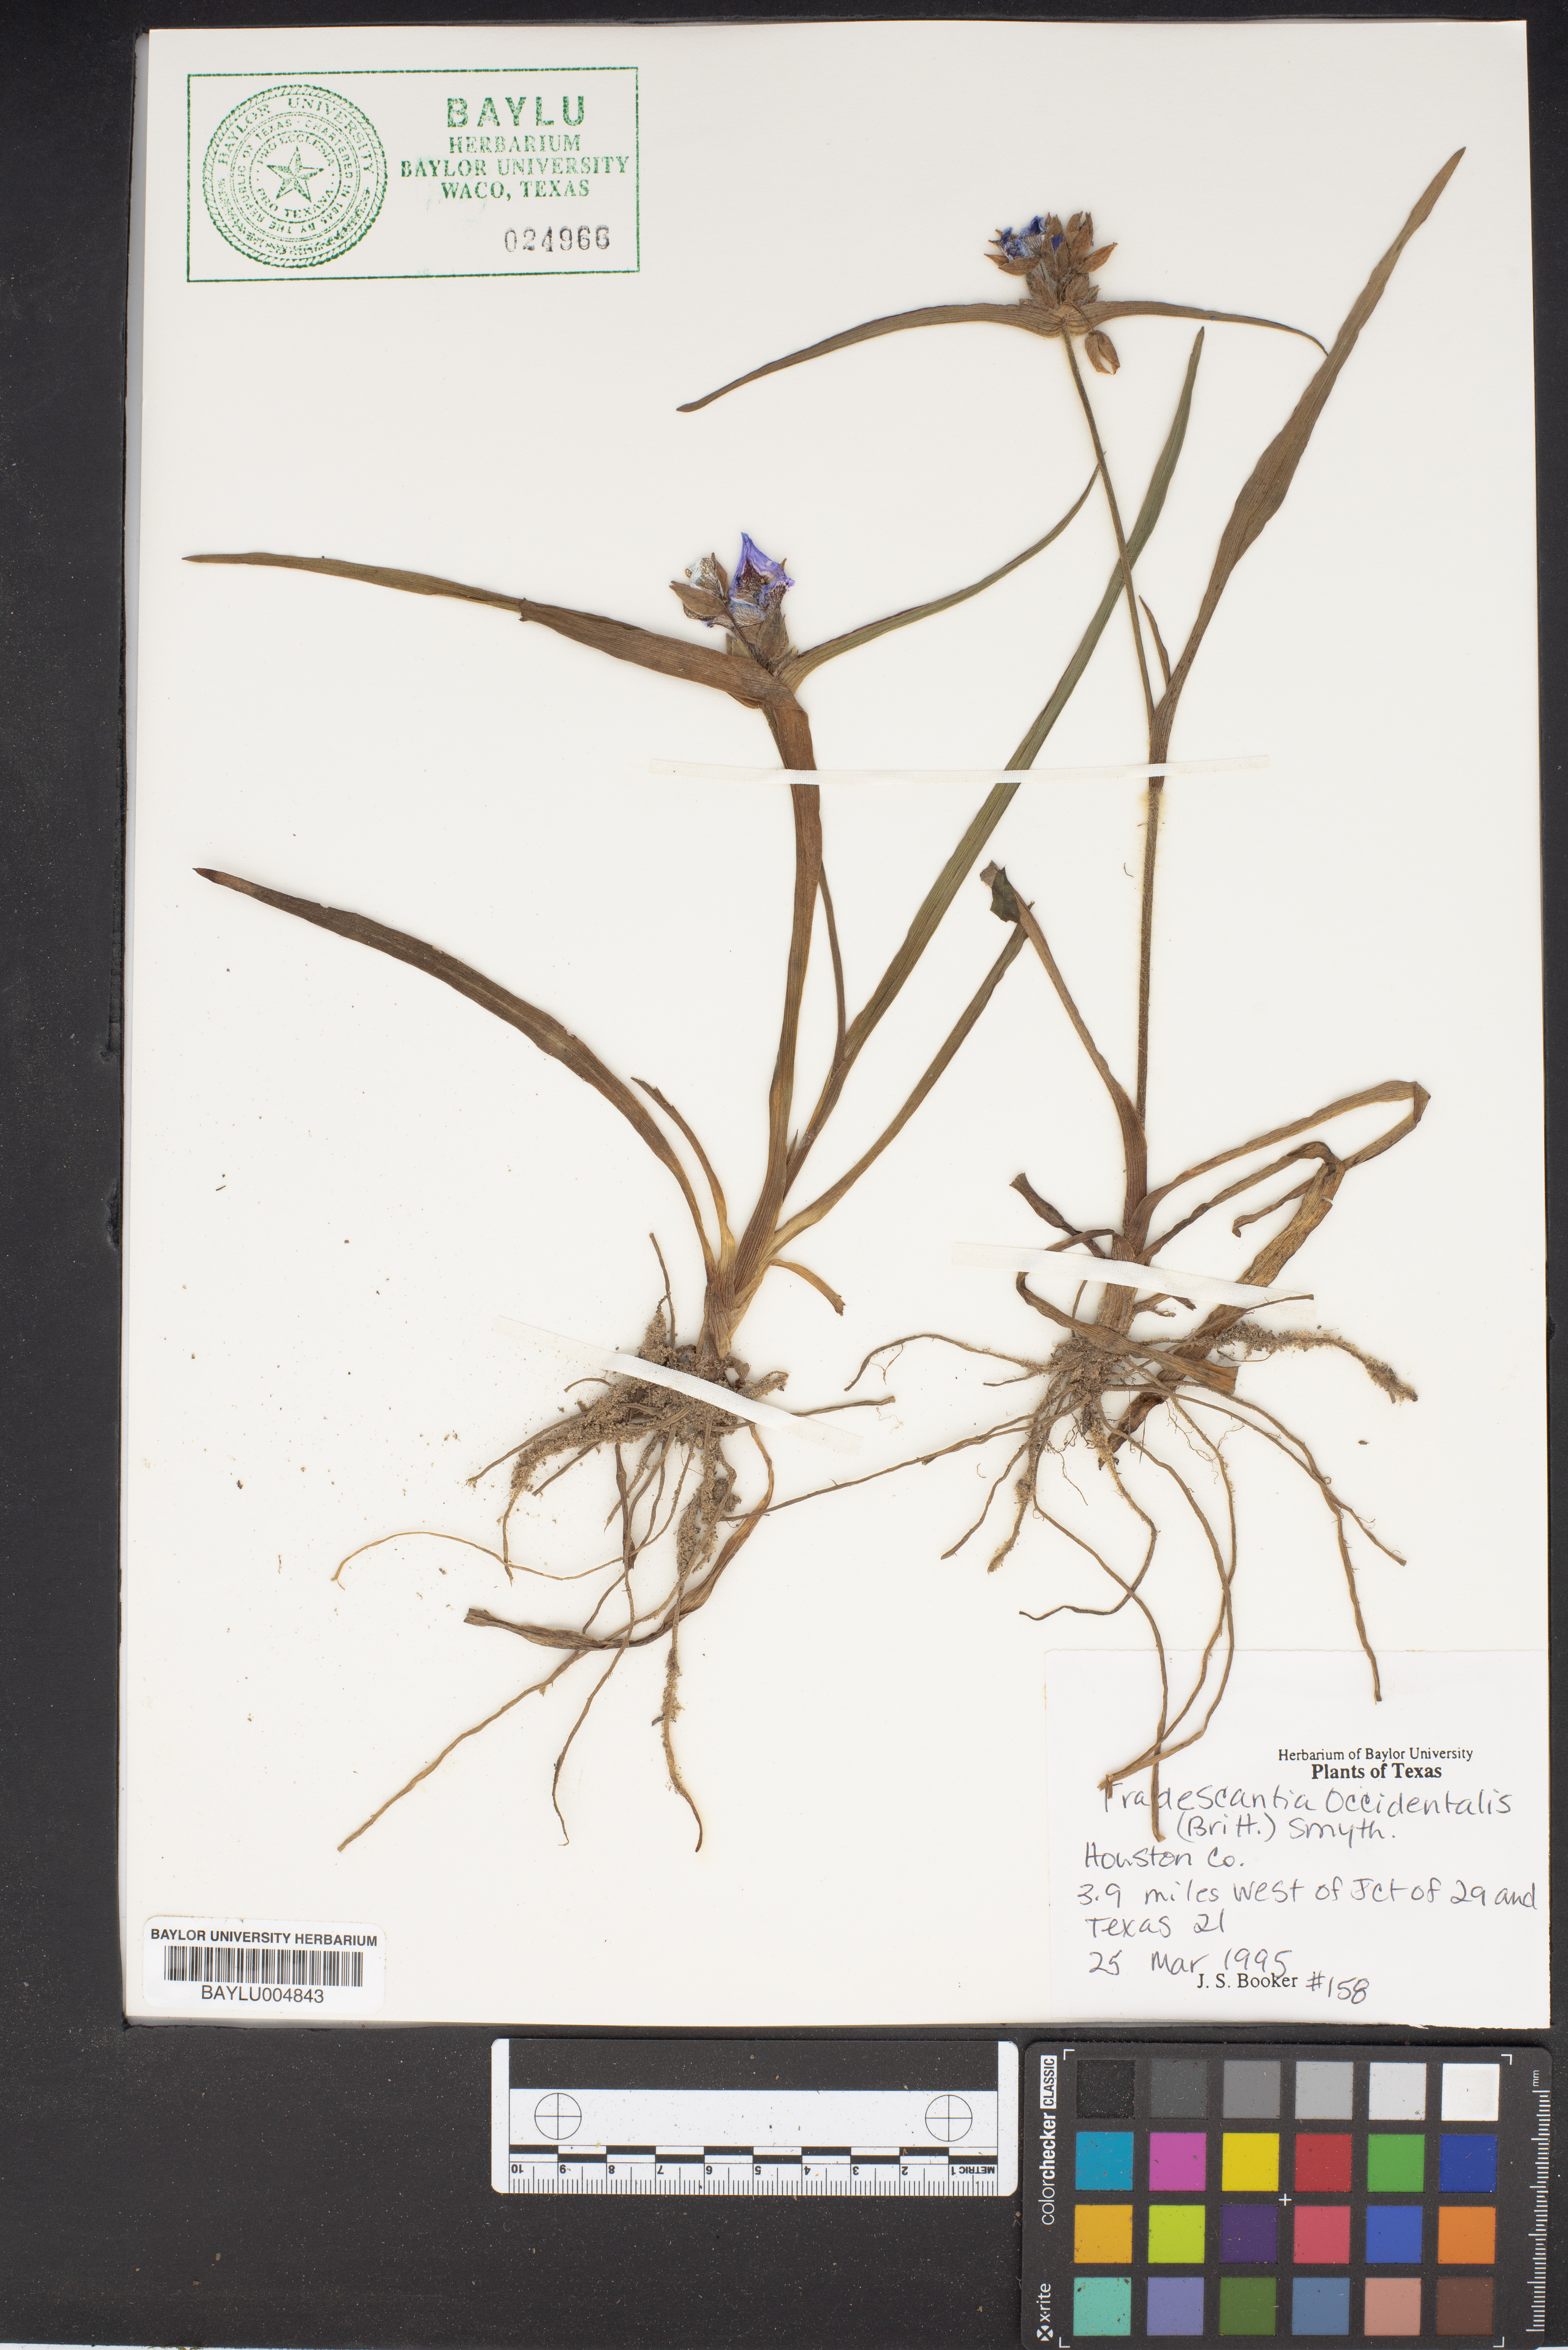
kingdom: Plantae
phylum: Tracheophyta
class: Liliopsida
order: Commelinales
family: Commelinaceae
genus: Tradescantia
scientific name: Tradescantia occidentalis
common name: Prairie spiderwort
